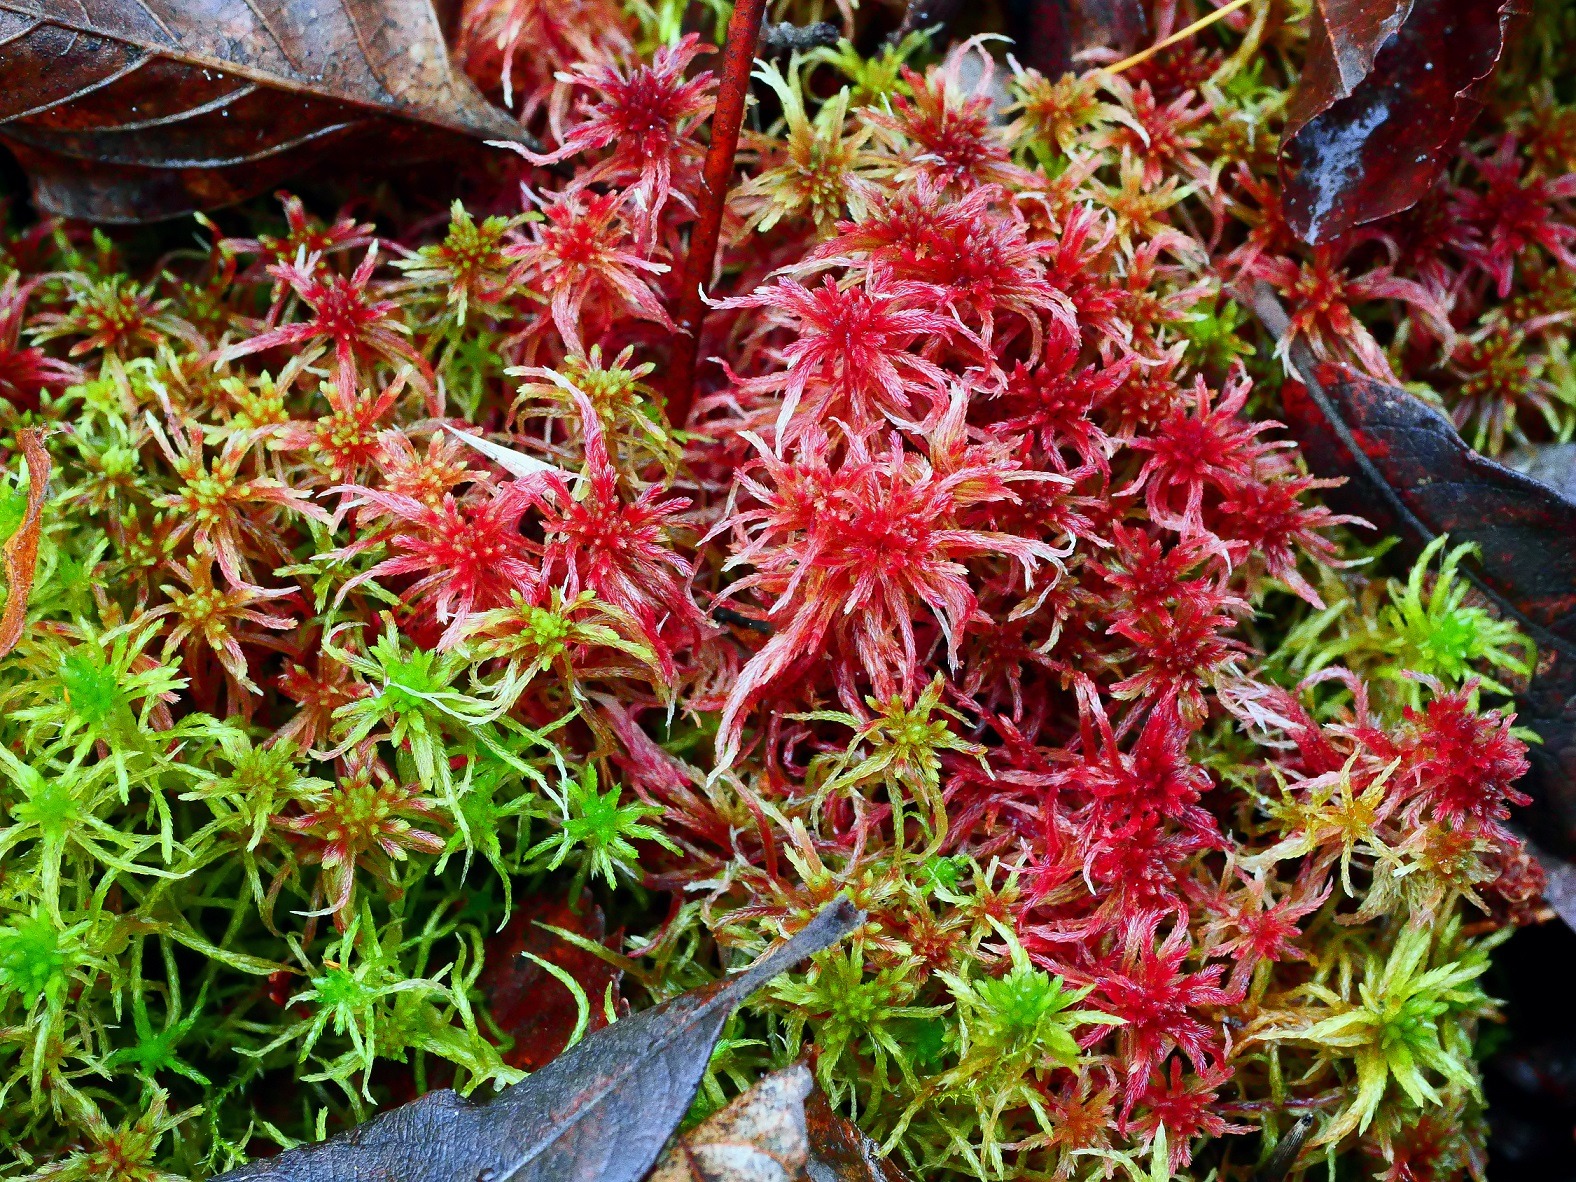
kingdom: Plantae
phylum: Bryophyta
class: Sphagnopsida
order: Sphagnales
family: Sphagnaceae
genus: Sphagnum
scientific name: Sphagnum warnstorfii
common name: Blygrå tørvemos
